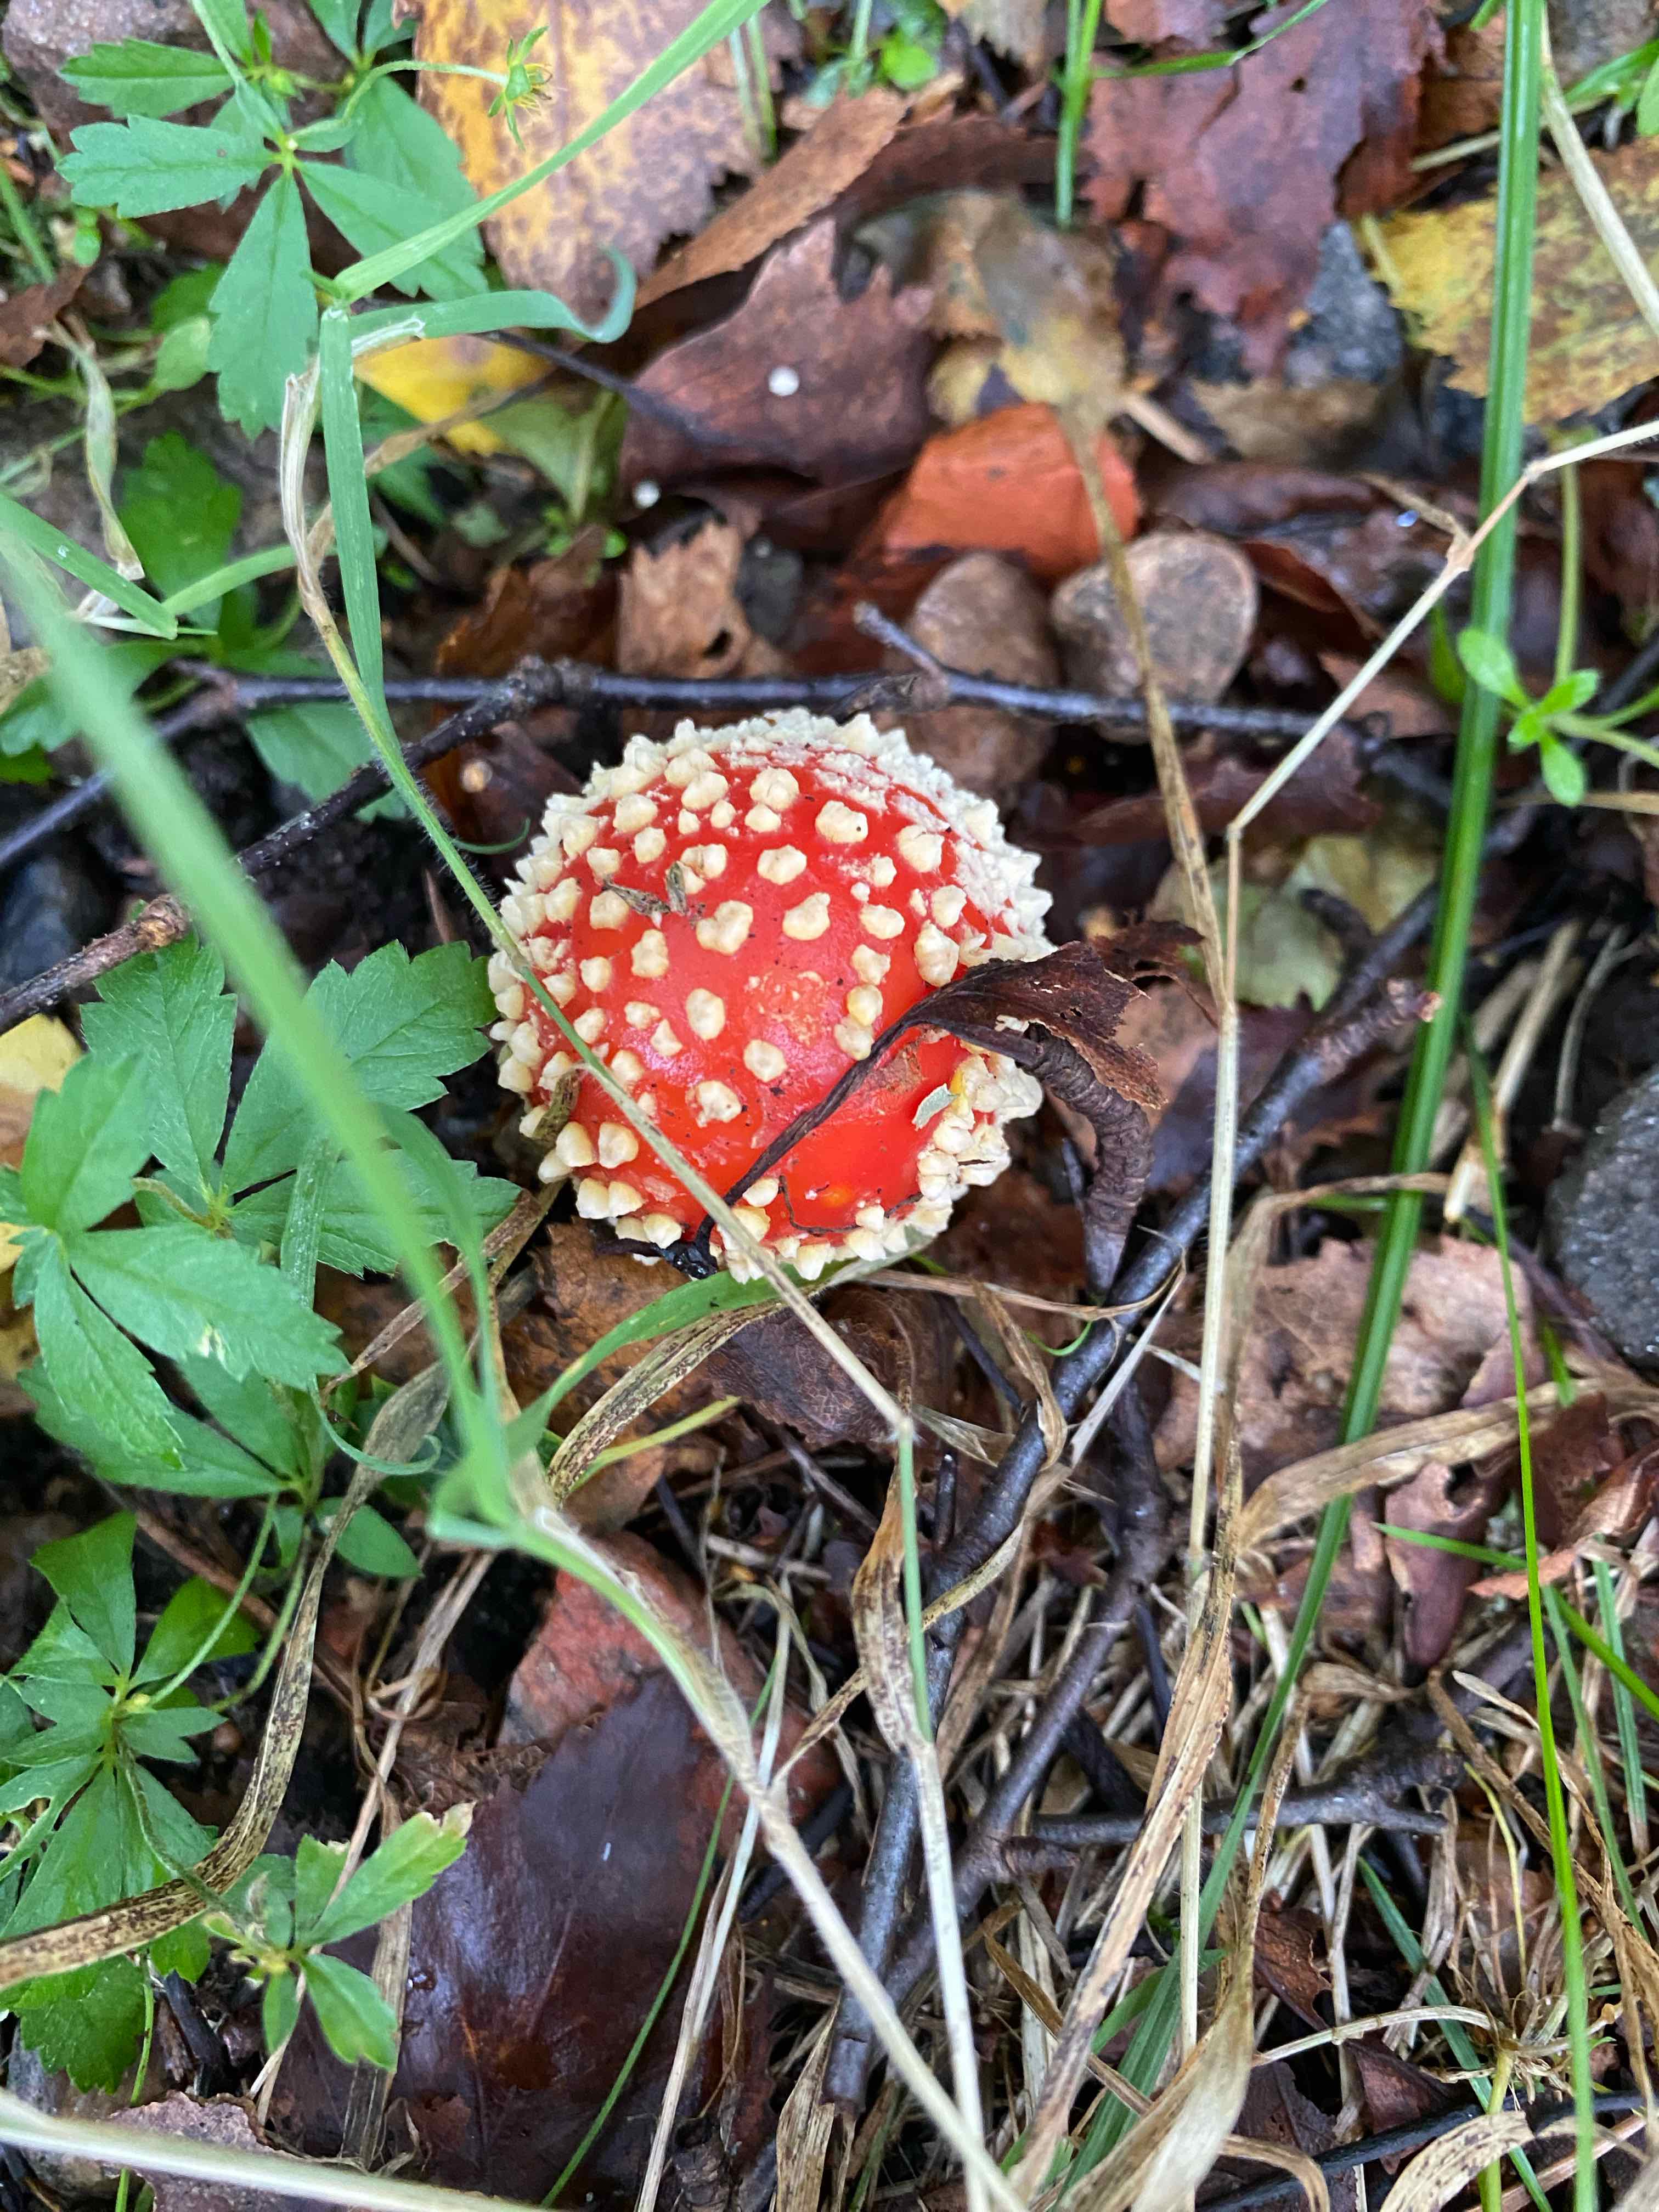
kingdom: Fungi
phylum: Basidiomycota
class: Agaricomycetes
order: Agaricales
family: Amanitaceae
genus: Amanita
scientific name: Amanita muscaria
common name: rød fluesvamp
